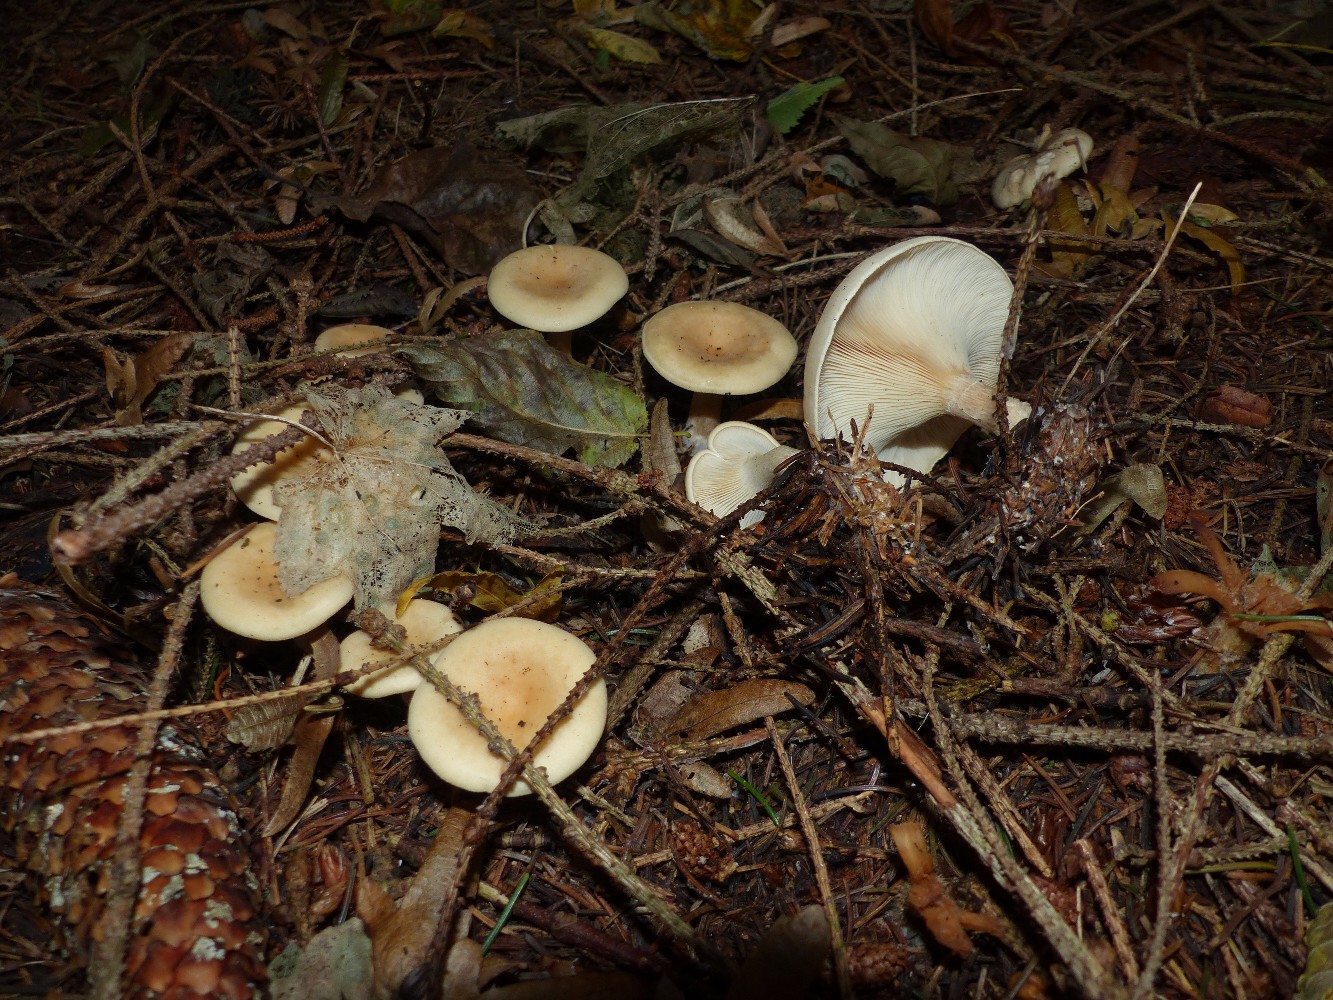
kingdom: Fungi
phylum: Basidiomycota
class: Agaricomycetes
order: Agaricales
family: Tricholomataceae
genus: Paralepista
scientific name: Paralepista flaccida
